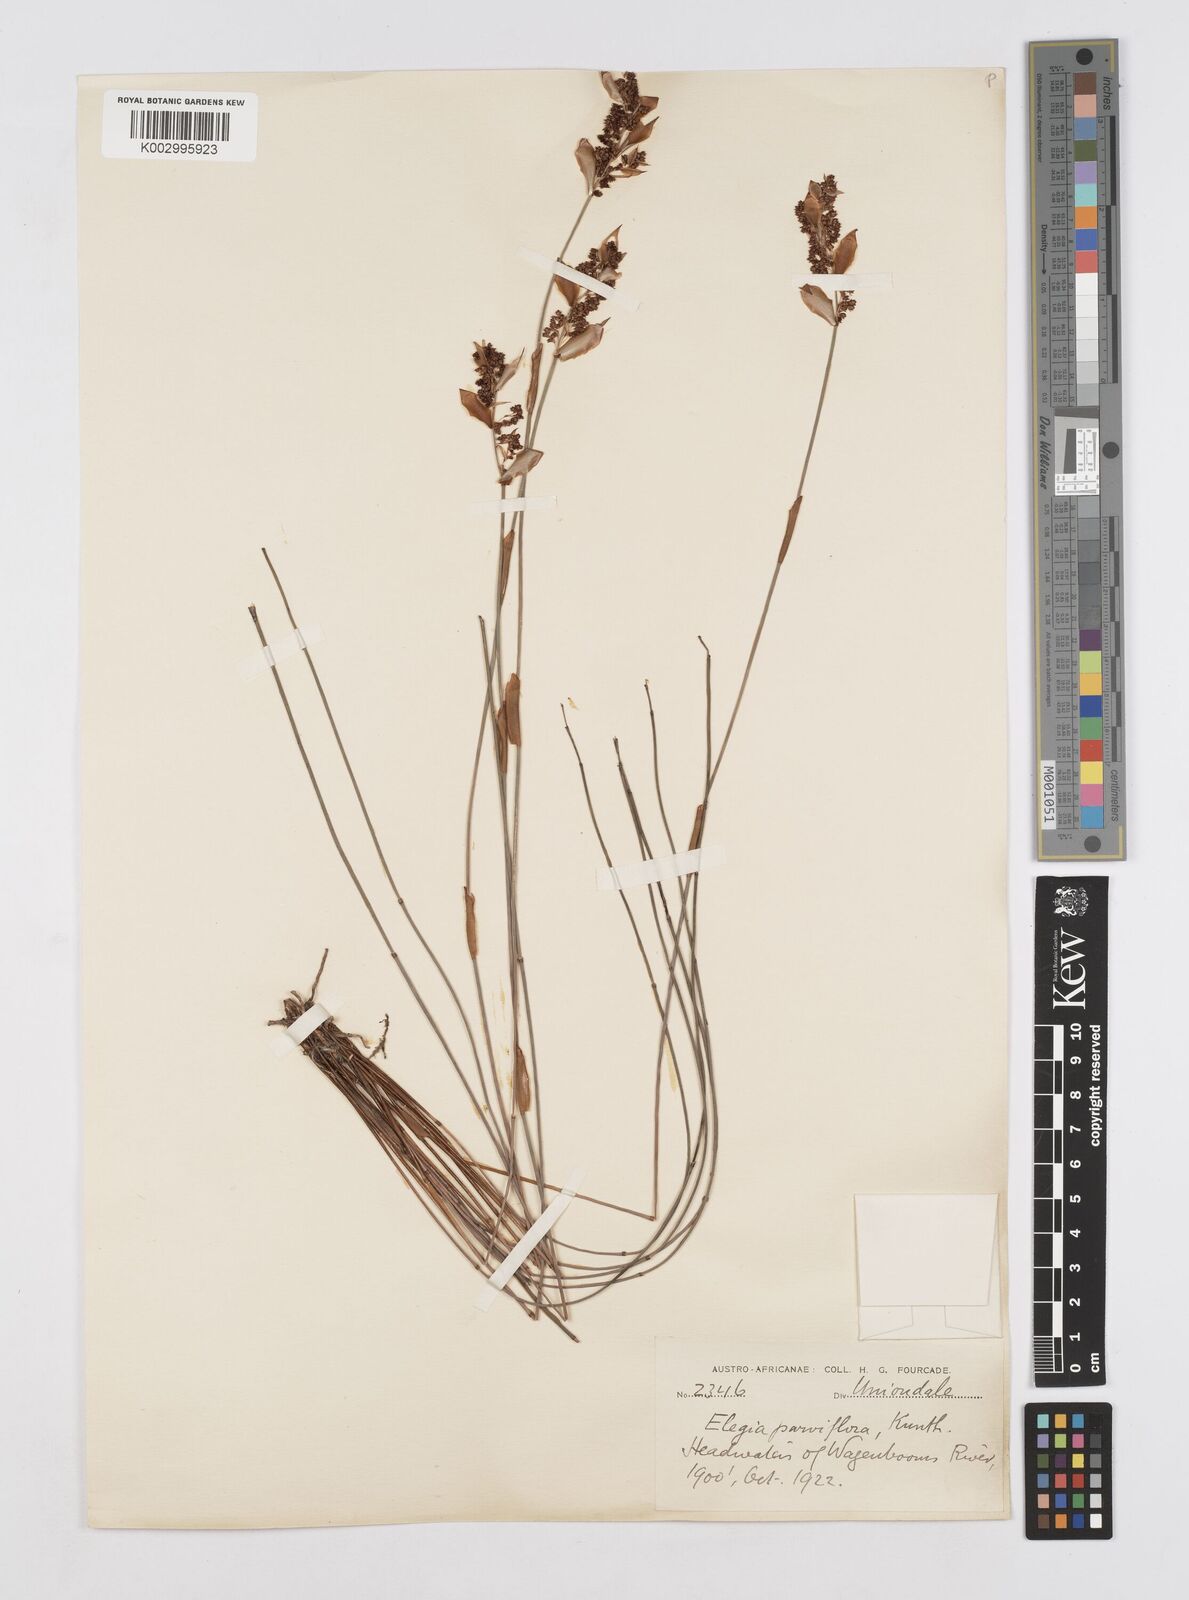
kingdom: Plantae
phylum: Tracheophyta
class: Liliopsida
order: Poales
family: Restionaceae
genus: Cannomois
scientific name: Cannomois parviflora
